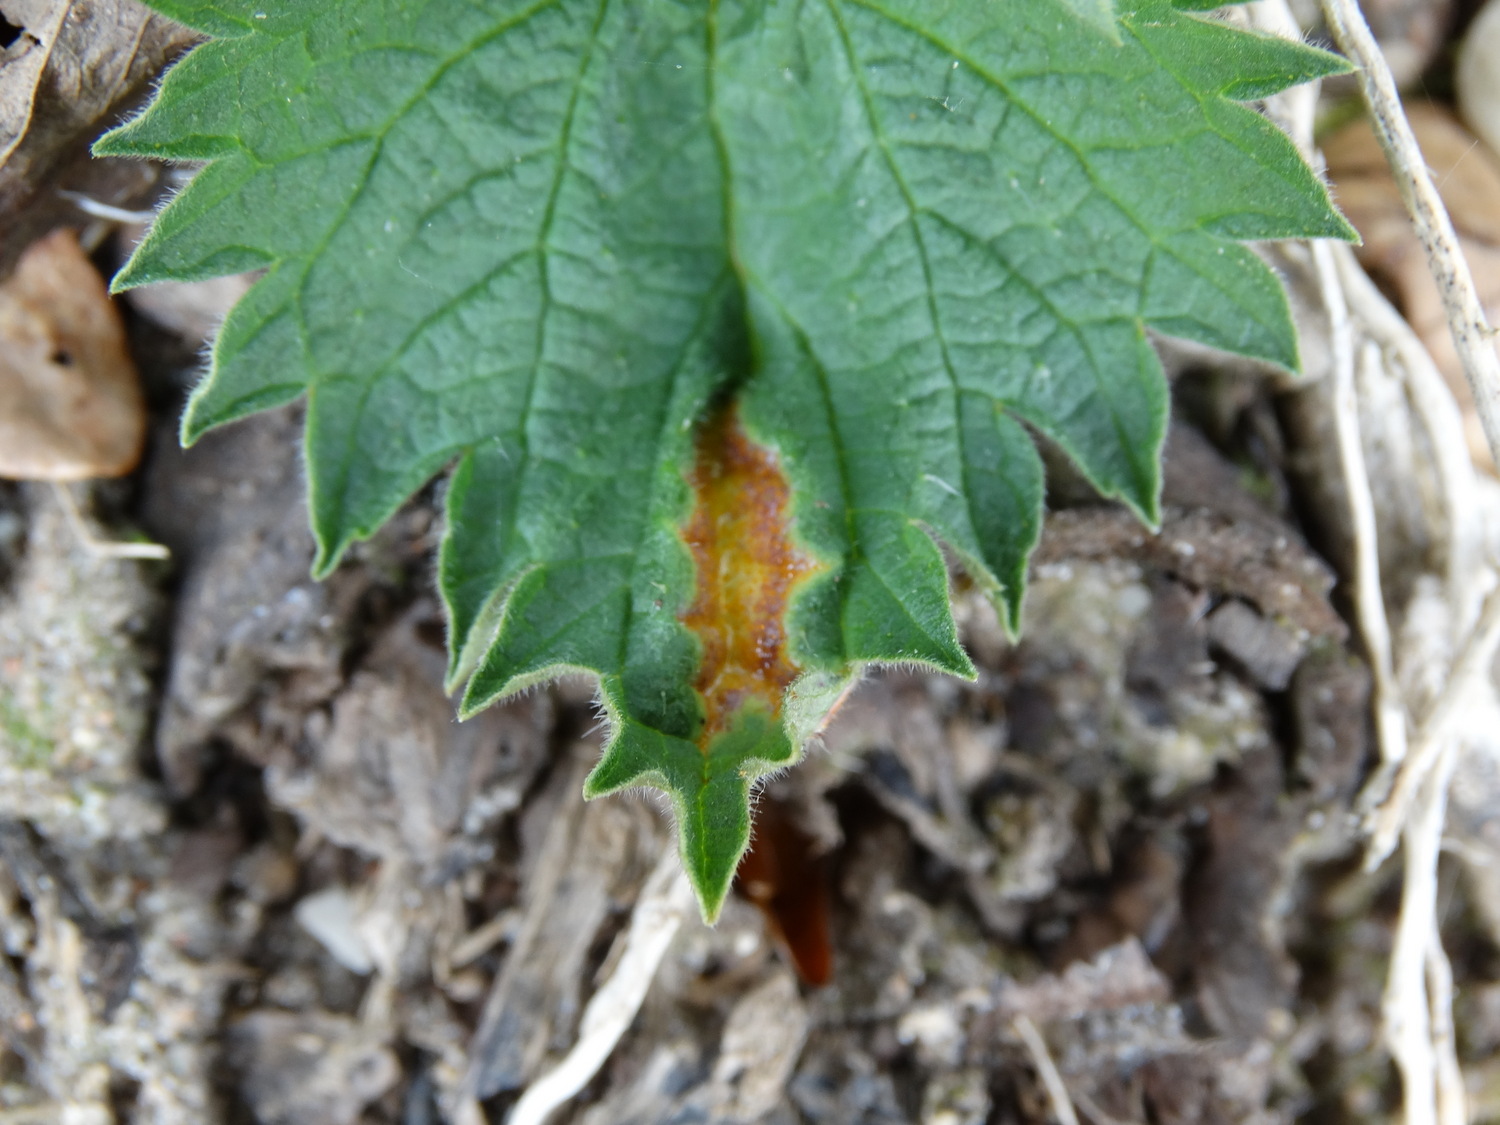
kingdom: Fungi
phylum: Basidiomycota
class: Pucciniomycetes
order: Pucciniales
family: Pucciniaceae
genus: Puccinia
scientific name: Puccinia urticata
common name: nældegalle-tvecellerust
